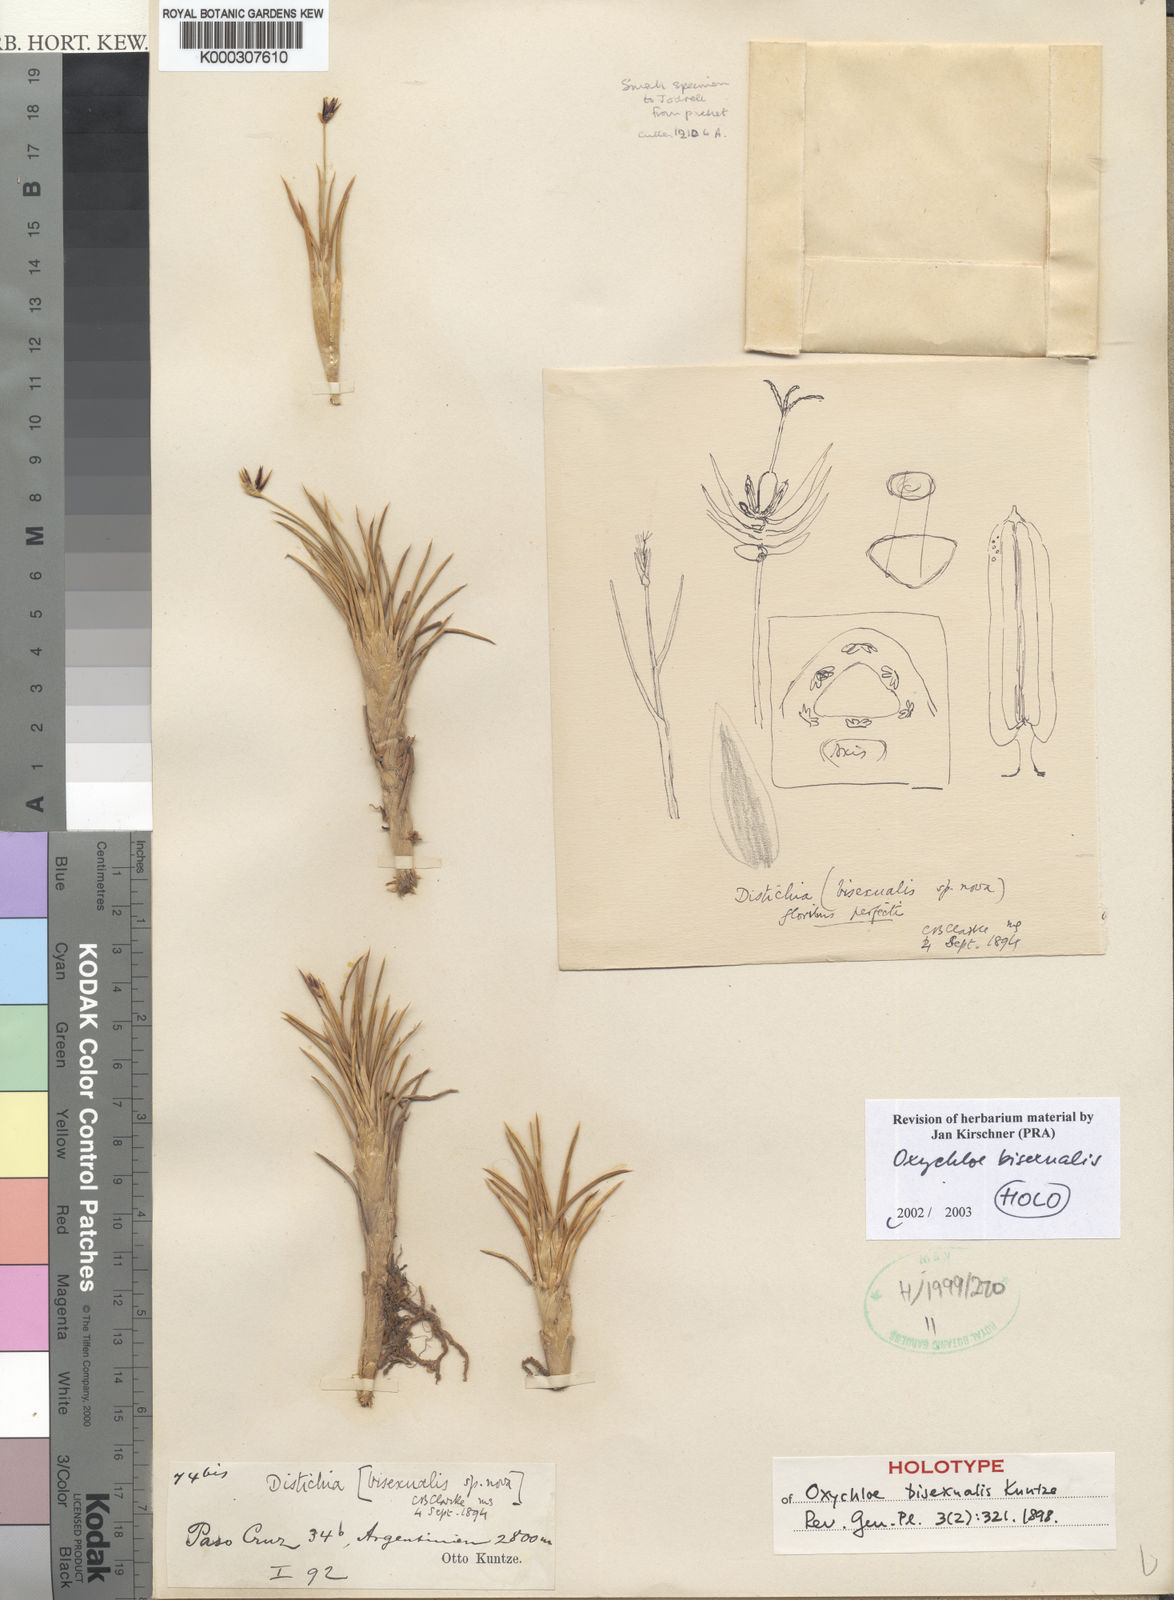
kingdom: Plantae
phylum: Tracheophyta
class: Liliopsida
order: Poales
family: Juncaceae
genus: Oxychloe
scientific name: Oxychloe bisexualis
